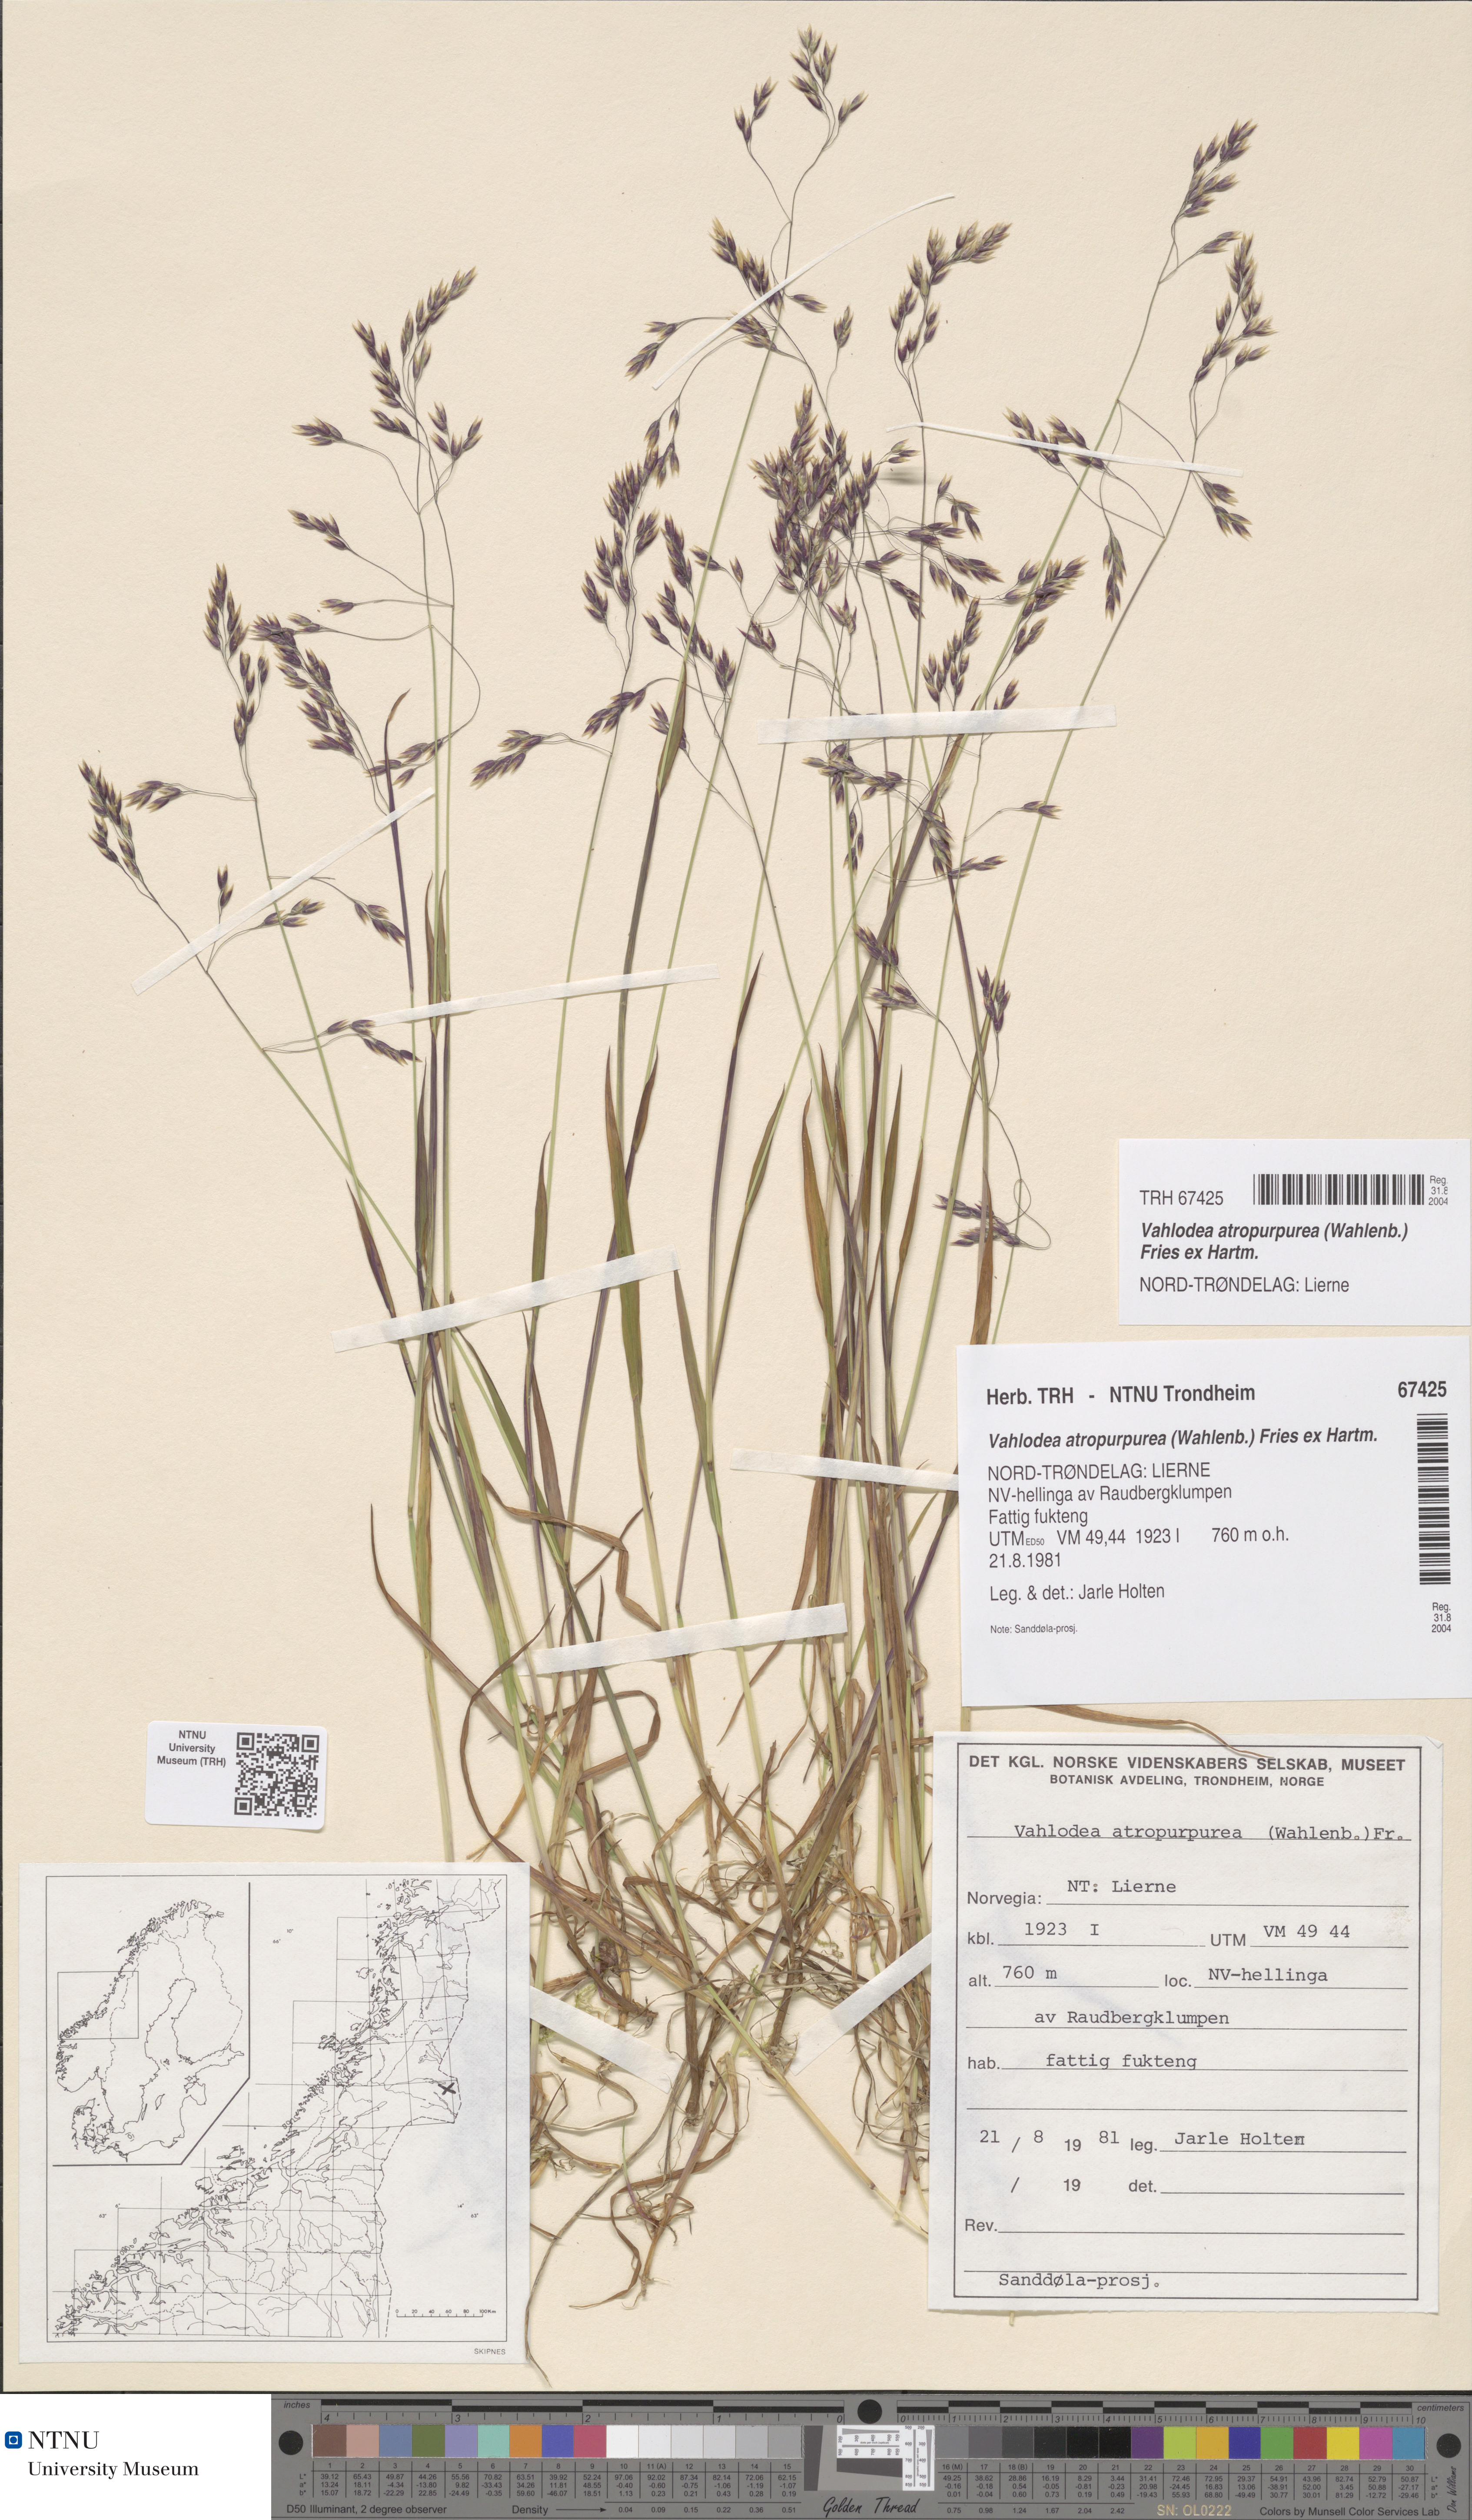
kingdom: Plantae
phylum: Tracheophyta
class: Liliopsida
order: Poales
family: Poaceae
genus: Vahlodea
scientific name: Vahlodea atropurpurea
